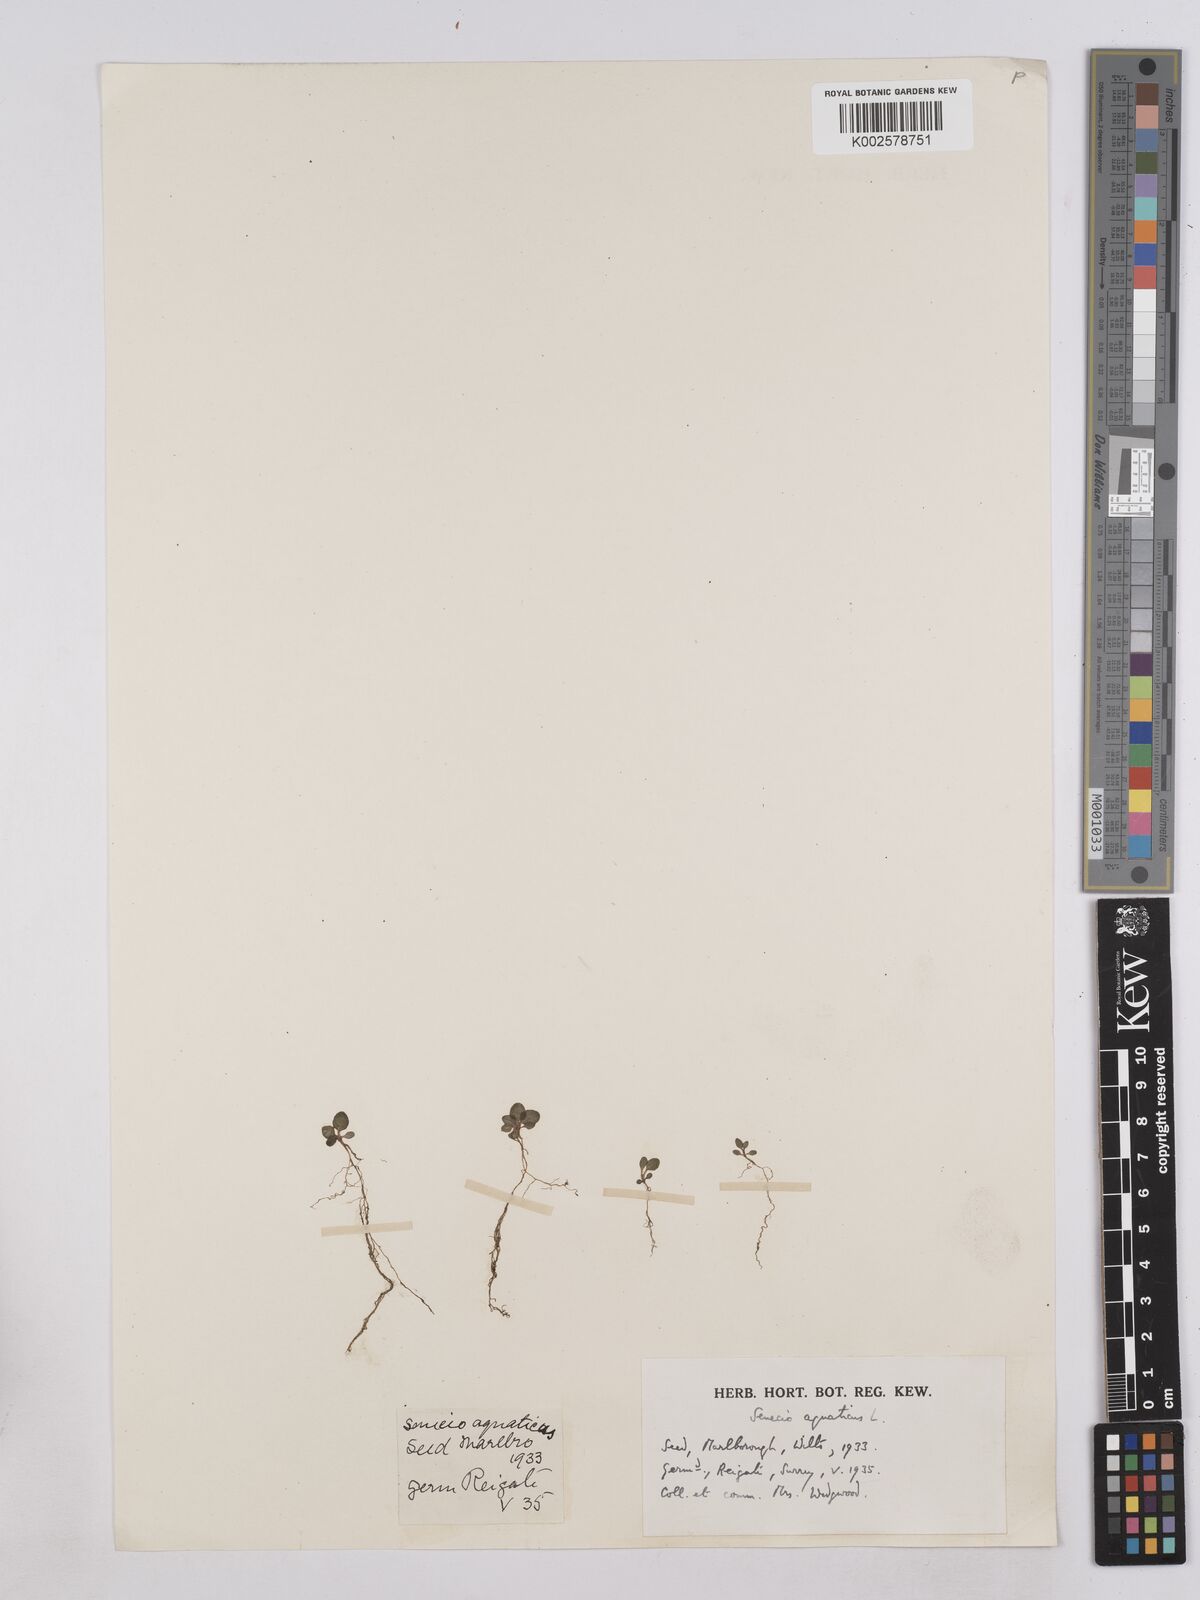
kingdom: Plantae
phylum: Tracheophyta
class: Magnoliopsida
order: Asterales
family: Asteraceae
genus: Senecio
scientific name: Senecio
